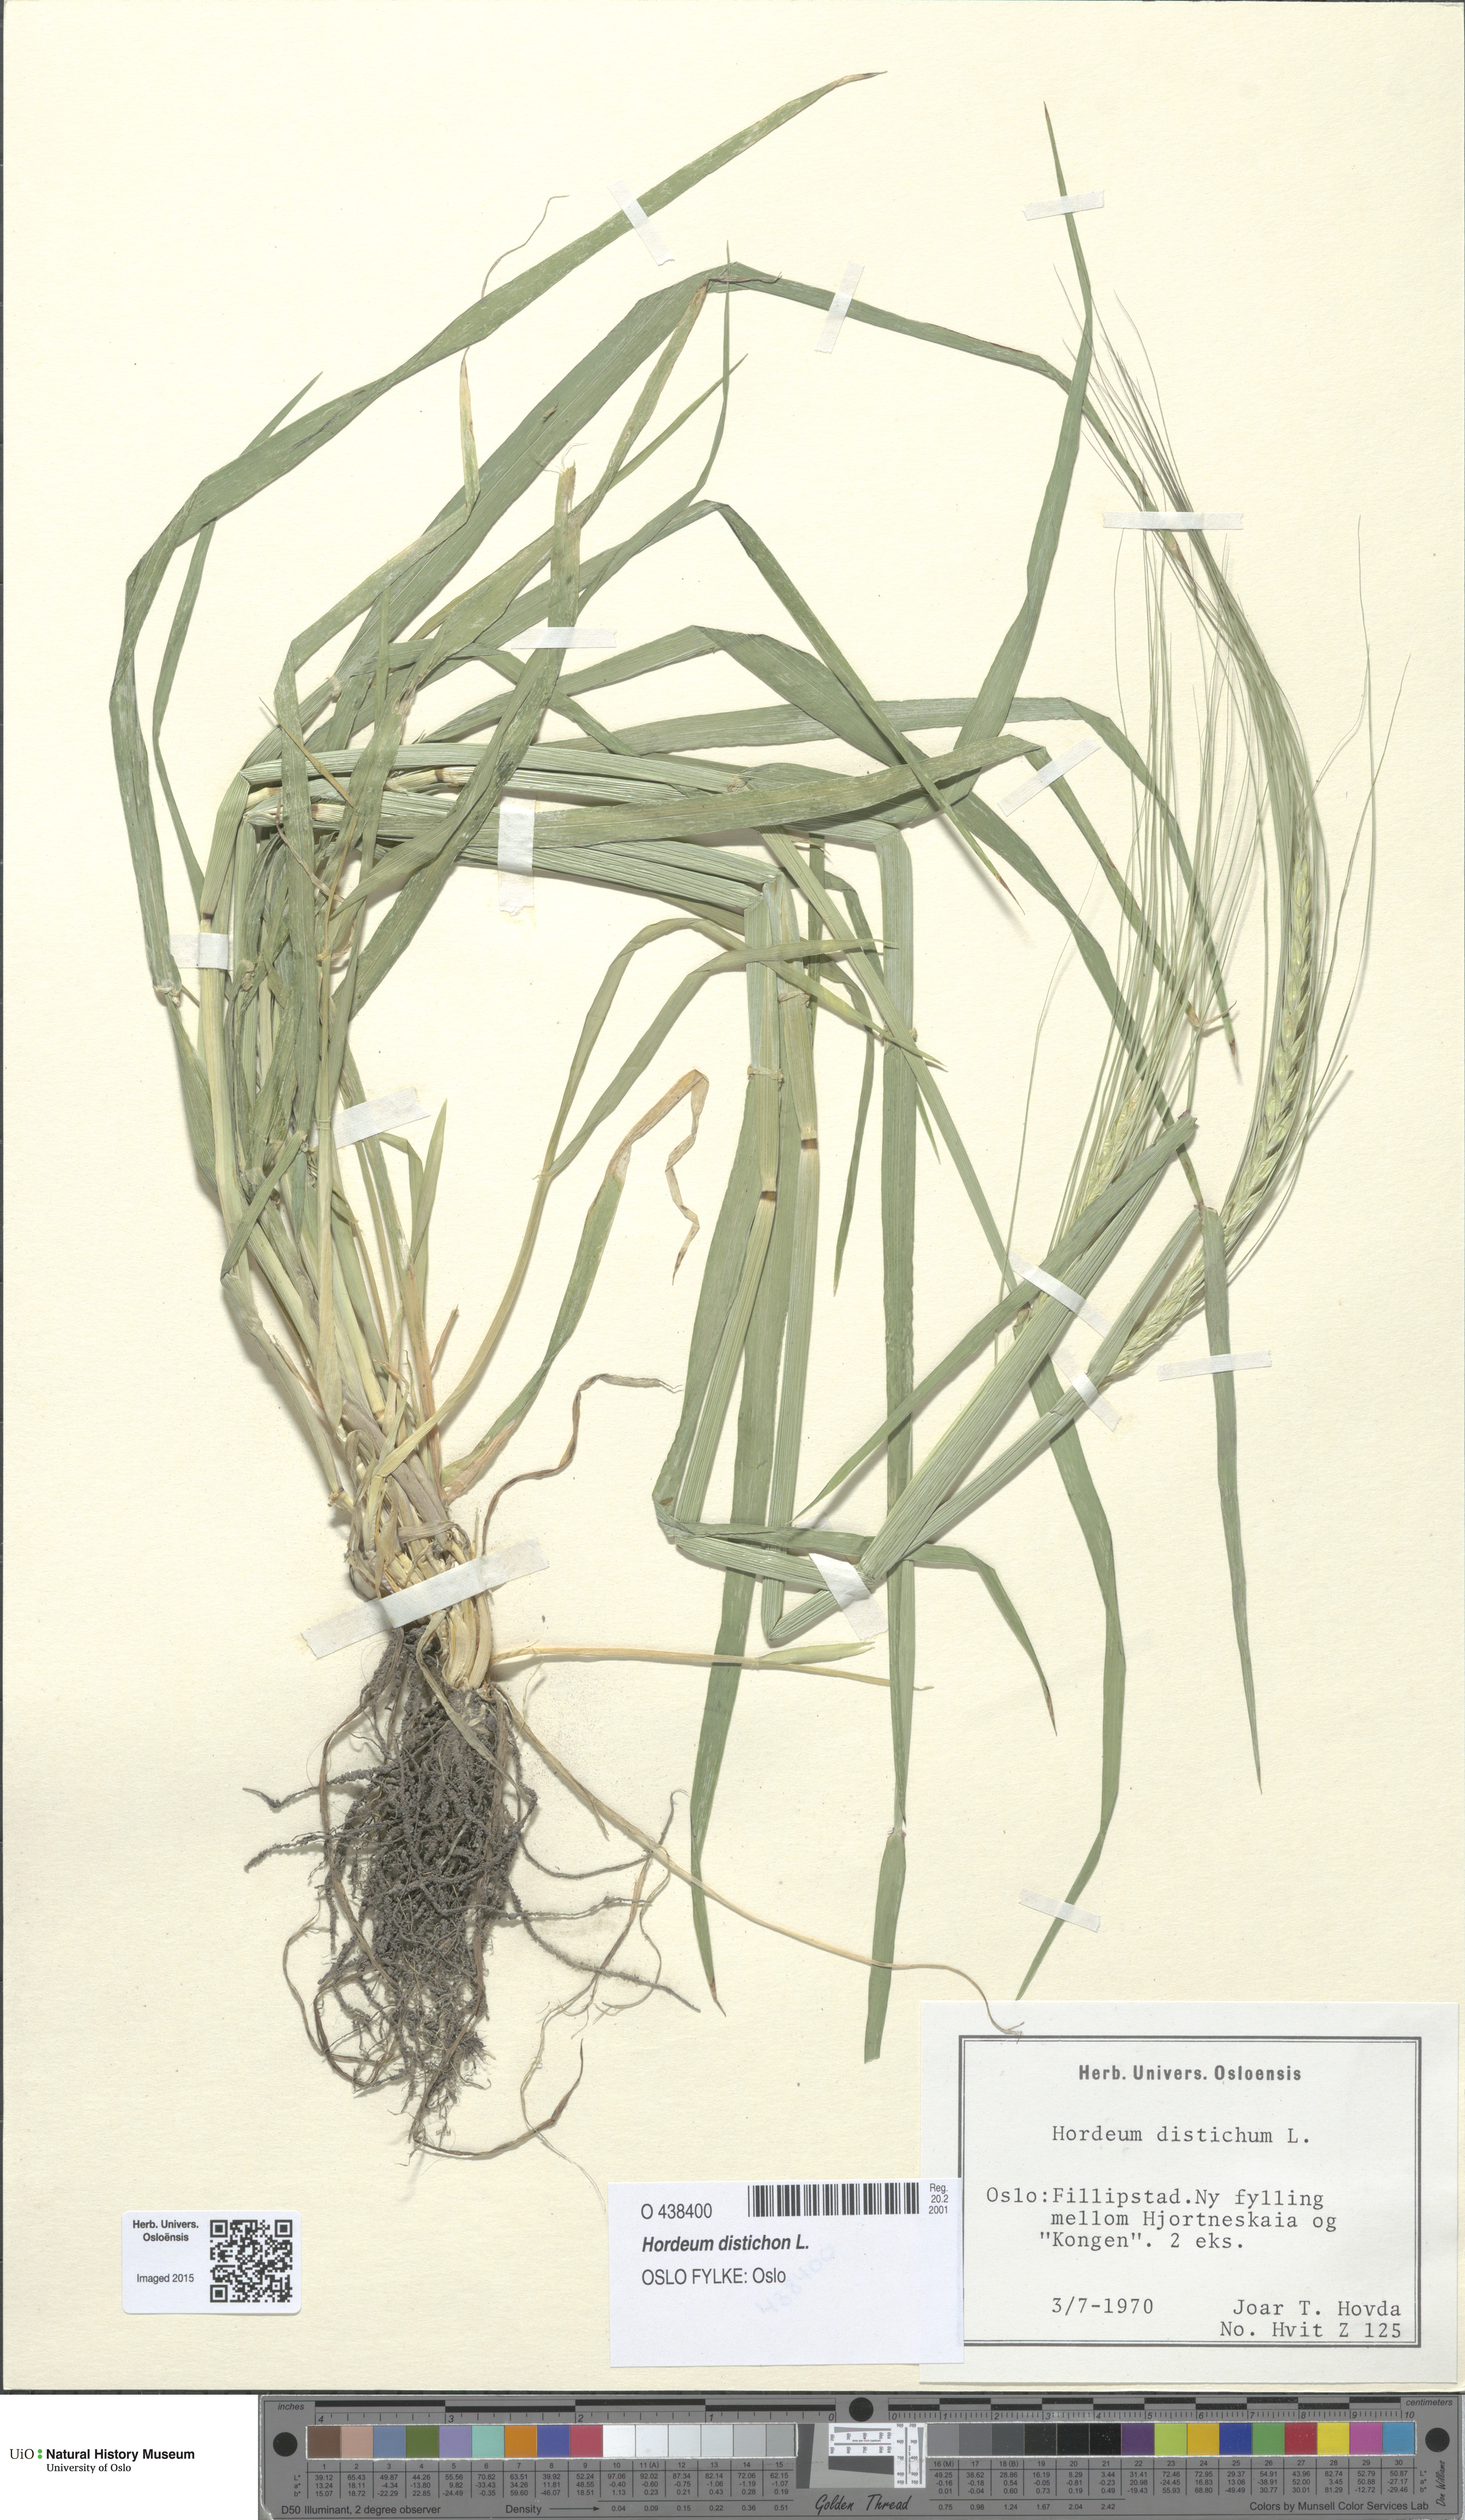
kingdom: Plantae
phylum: Tracheophyta
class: Liliopsida
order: Poales
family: Poaceae
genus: Hordeum
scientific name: Hordeum distichon
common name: Two-rowed barley
